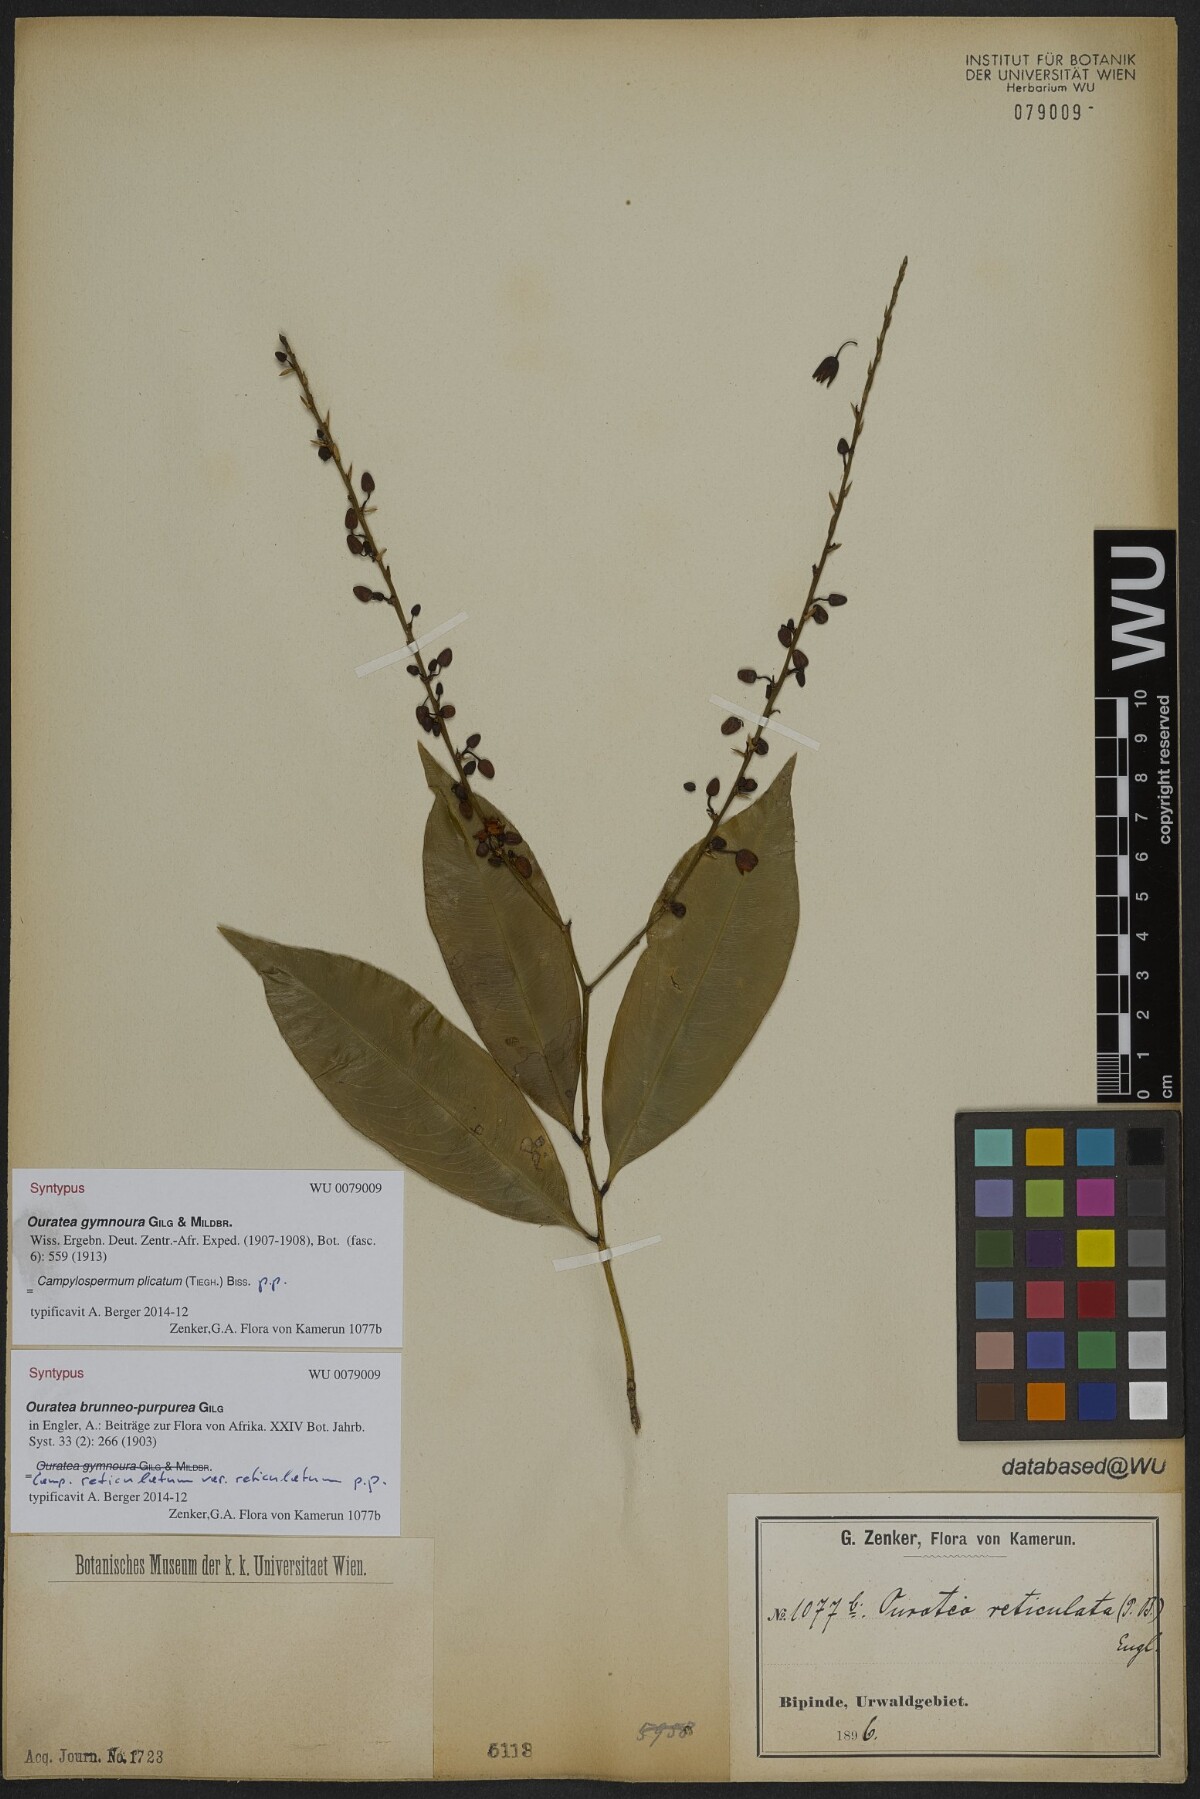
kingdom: Plantae
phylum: Tracheophyta
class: Magnoliopsida
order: Malpighiales
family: Ochnaceae
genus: Campylospermum
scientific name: Campylospermum strictum
